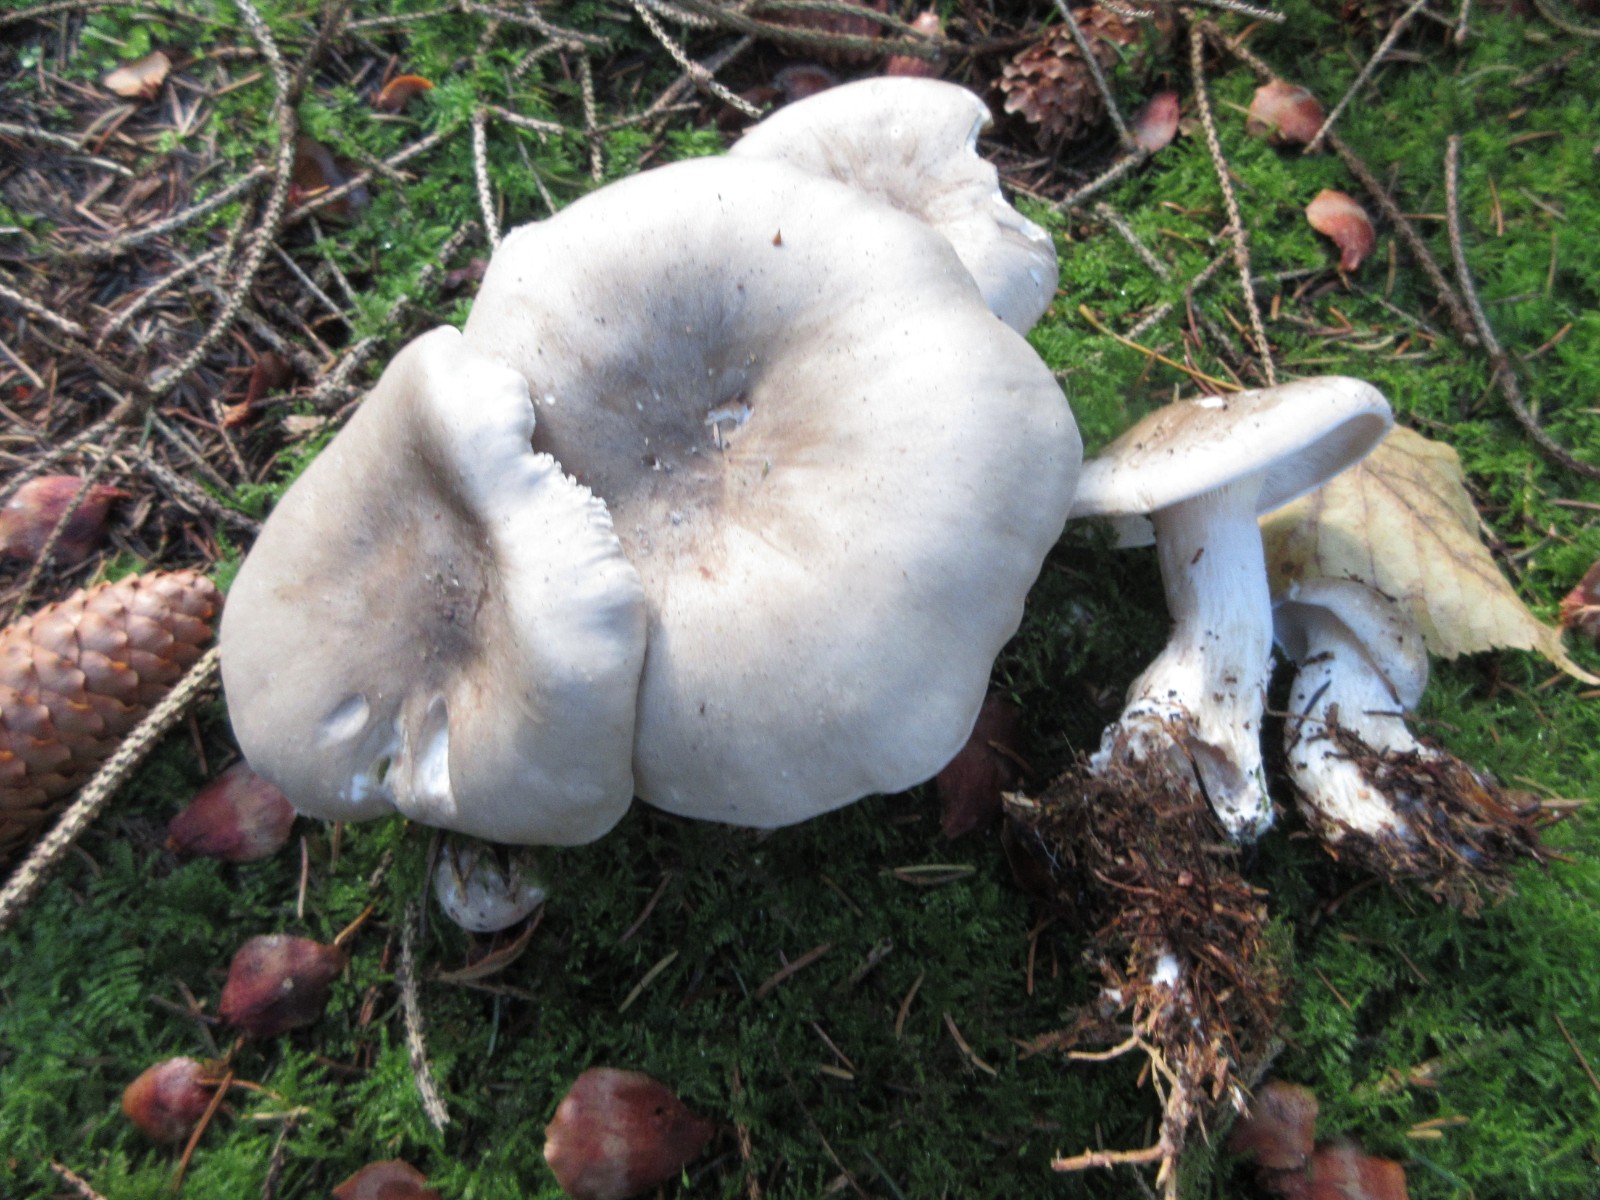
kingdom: Fungi
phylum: Basidiomycota
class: Agaricomycetes
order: Agaricales
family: Tricholomataceae
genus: Clitocybe
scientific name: Clitocybe nebularis
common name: tåge-tragthat
